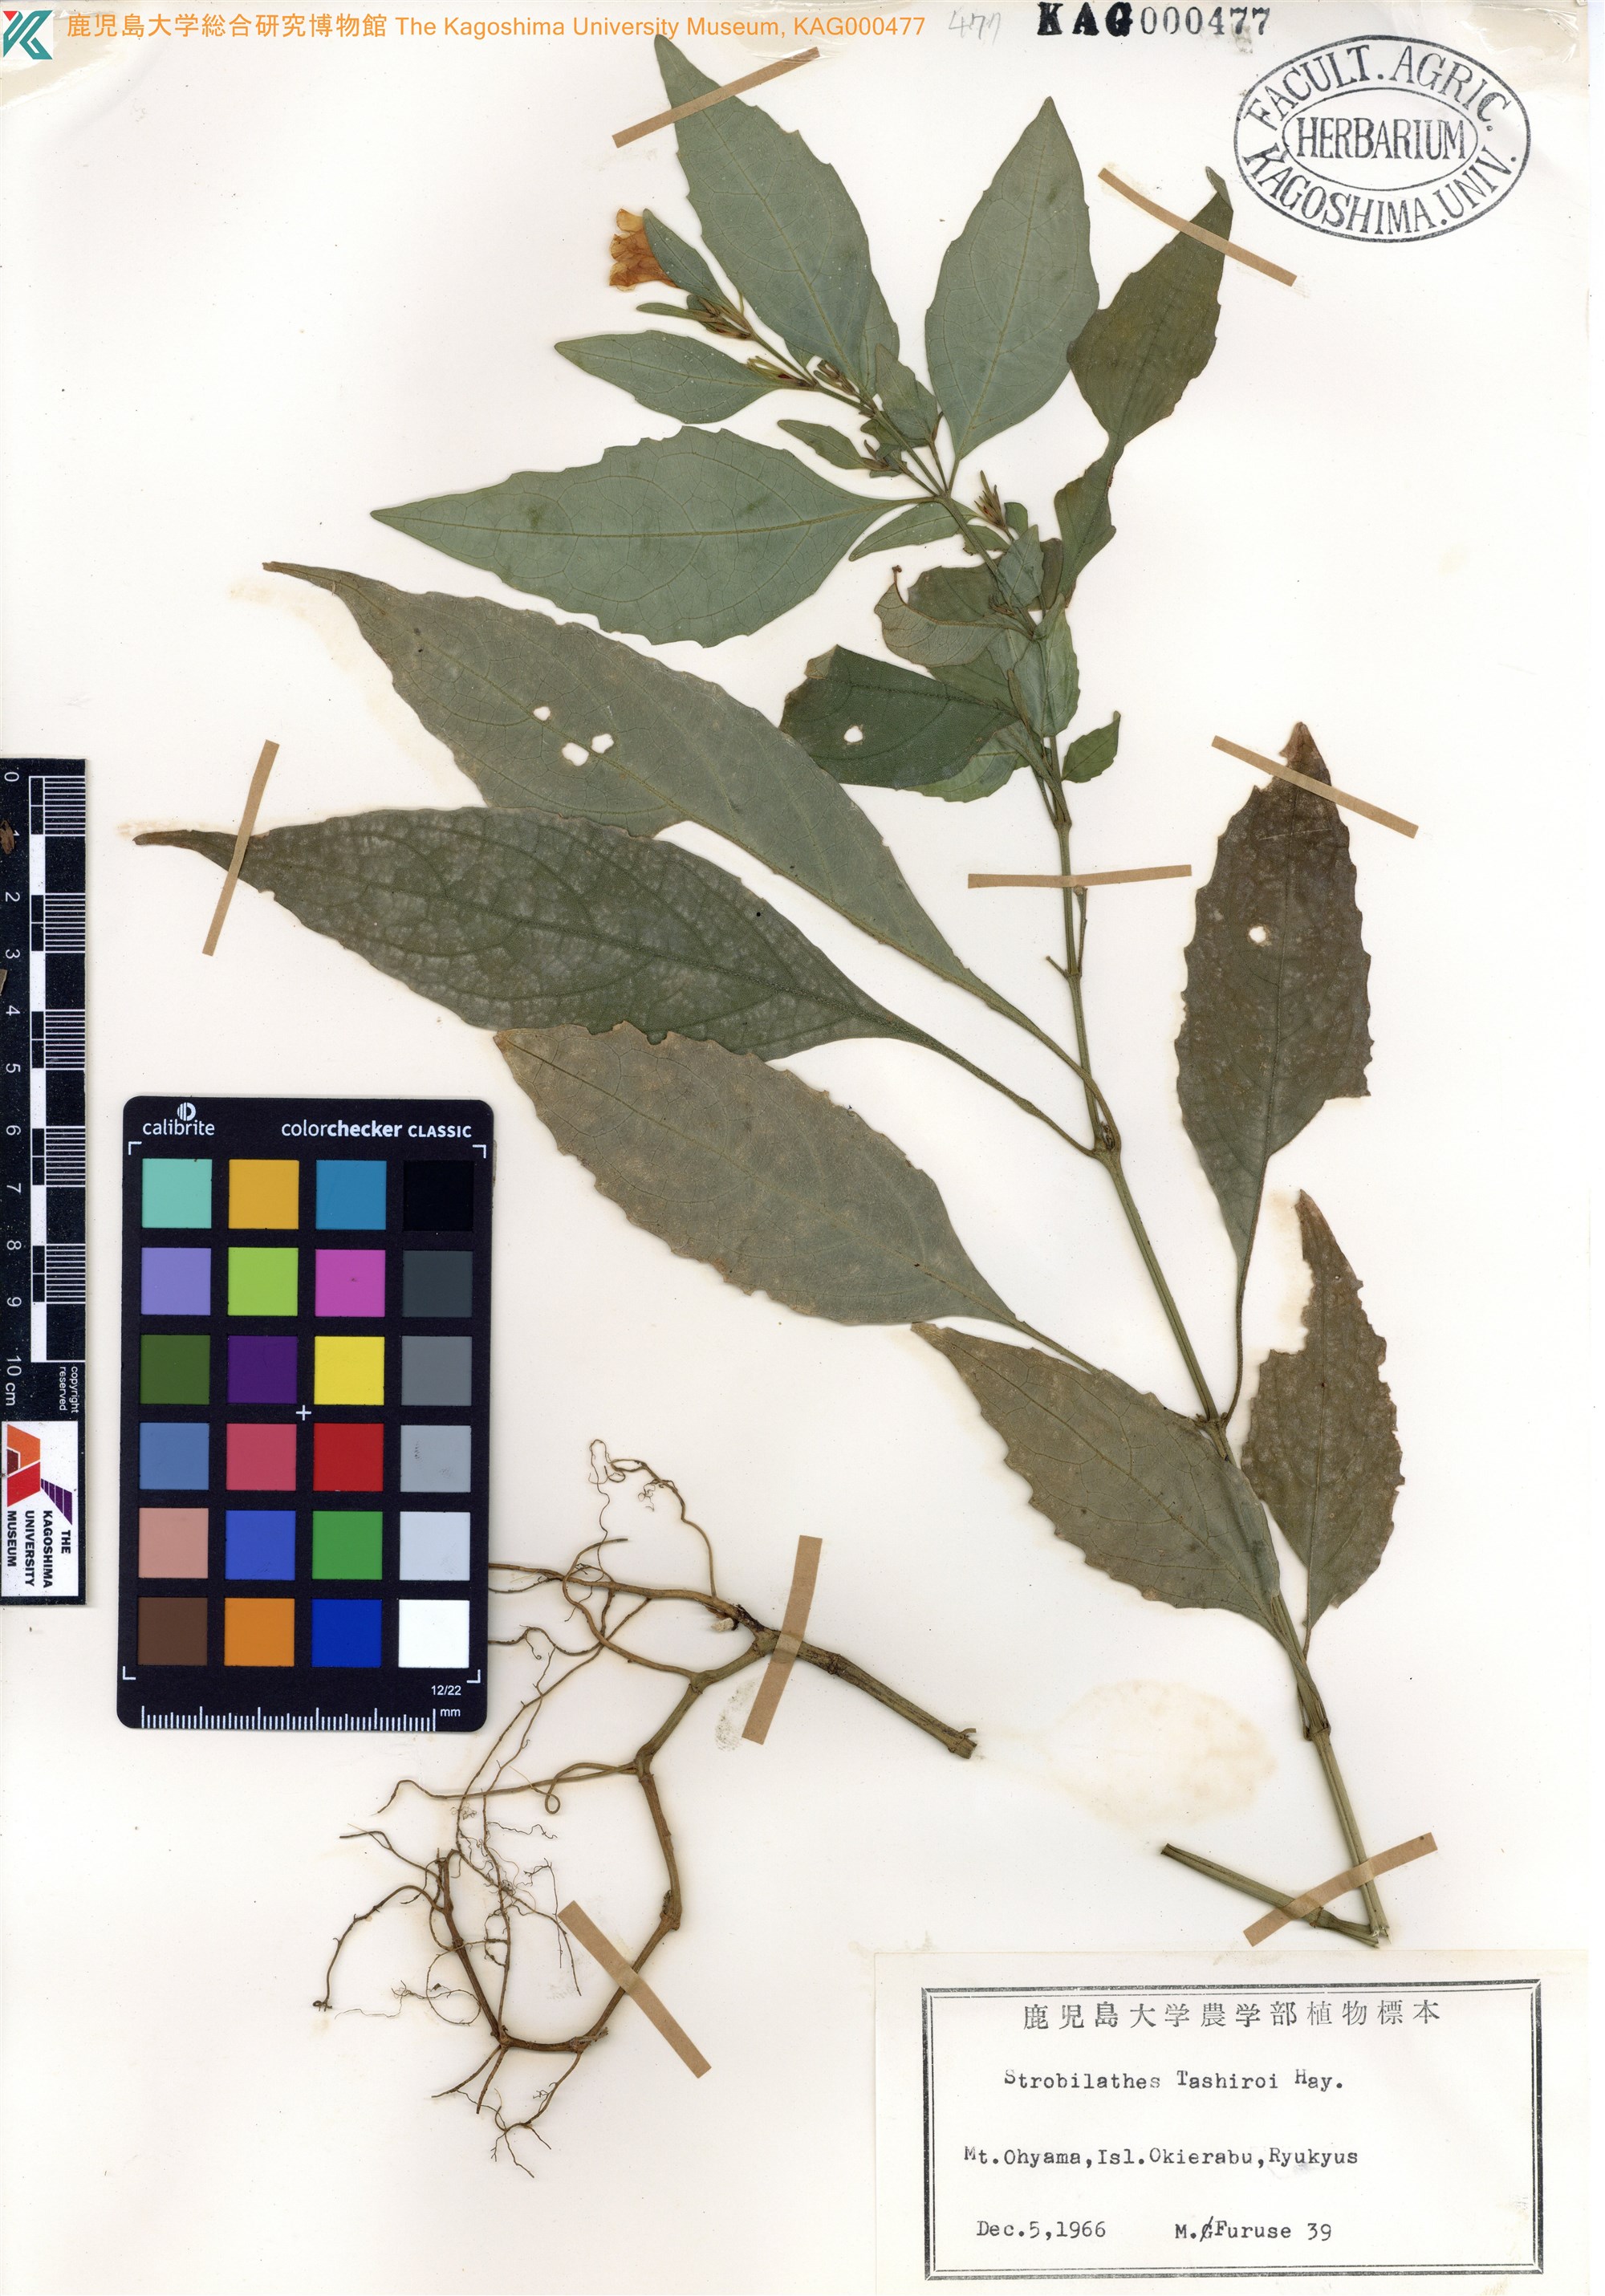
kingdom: Plantae
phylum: Tracheophyta
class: Magnoliopsida
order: Lamiales
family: Acanthaceae
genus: Strobilanthes
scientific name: Strobilanthes flexicaulis
